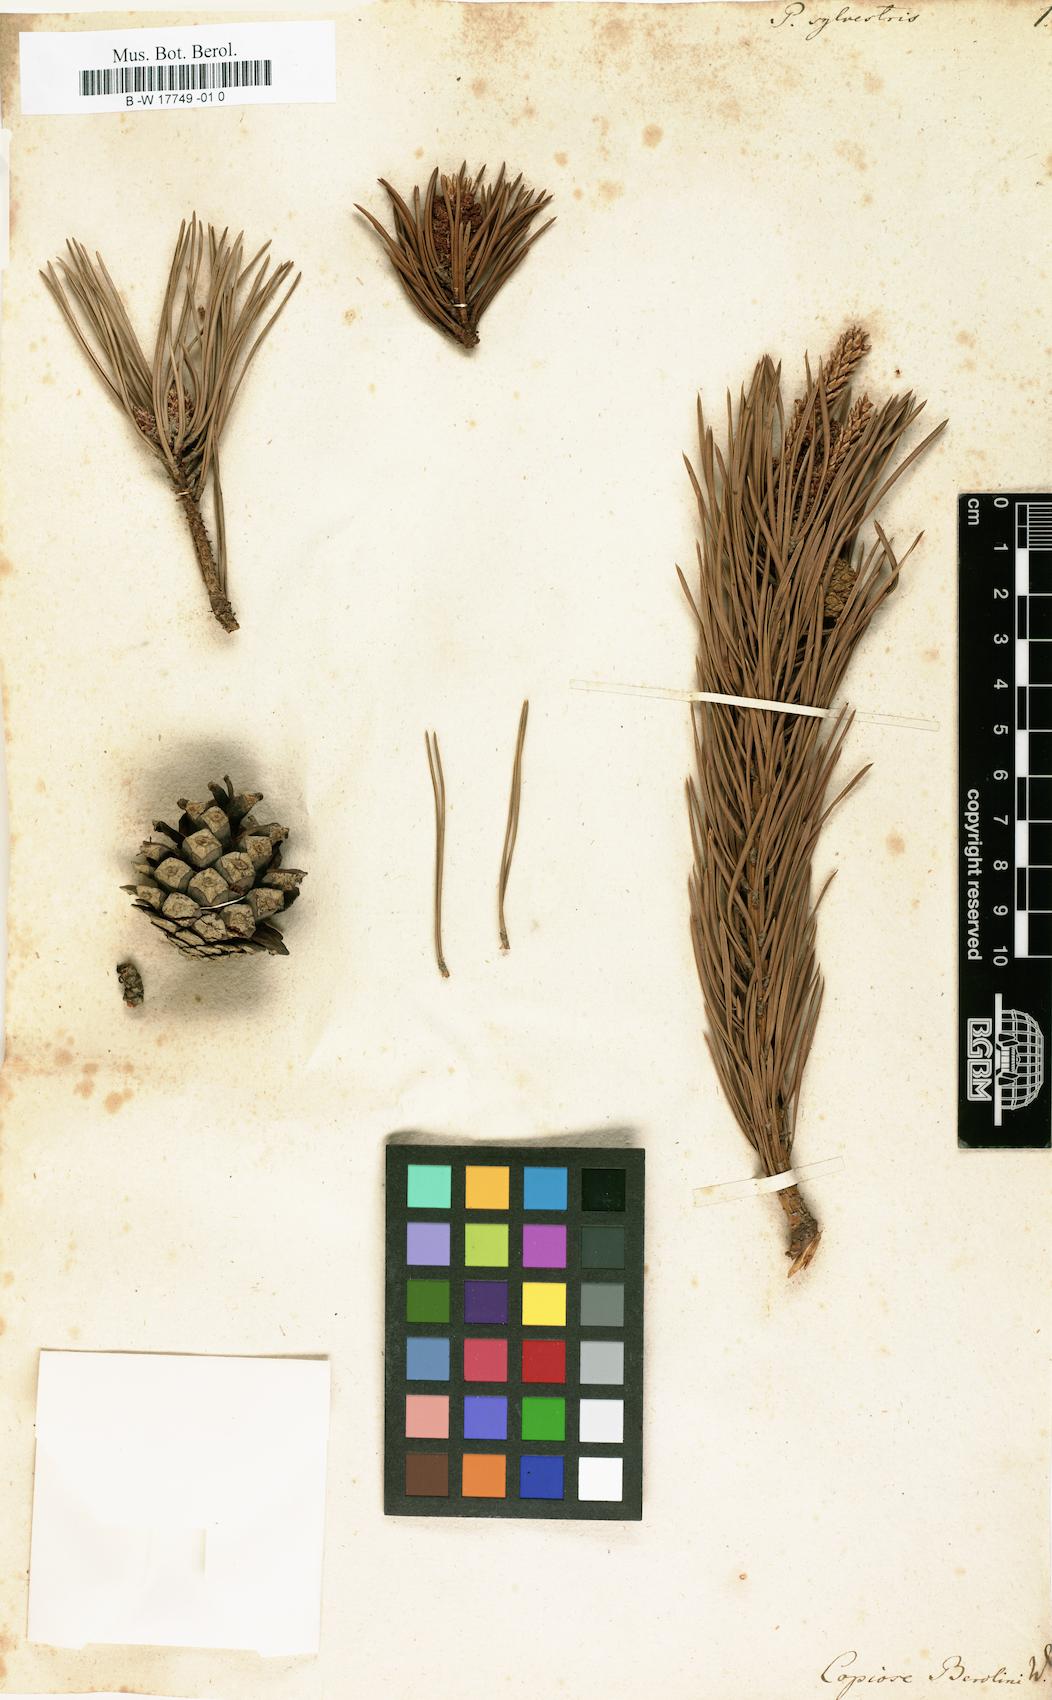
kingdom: Plantae
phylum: Tracheophyta
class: Pinopsida
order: Pinales
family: Pinaceae
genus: Pinus
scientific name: Pinus sylvestris
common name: Scots pine
